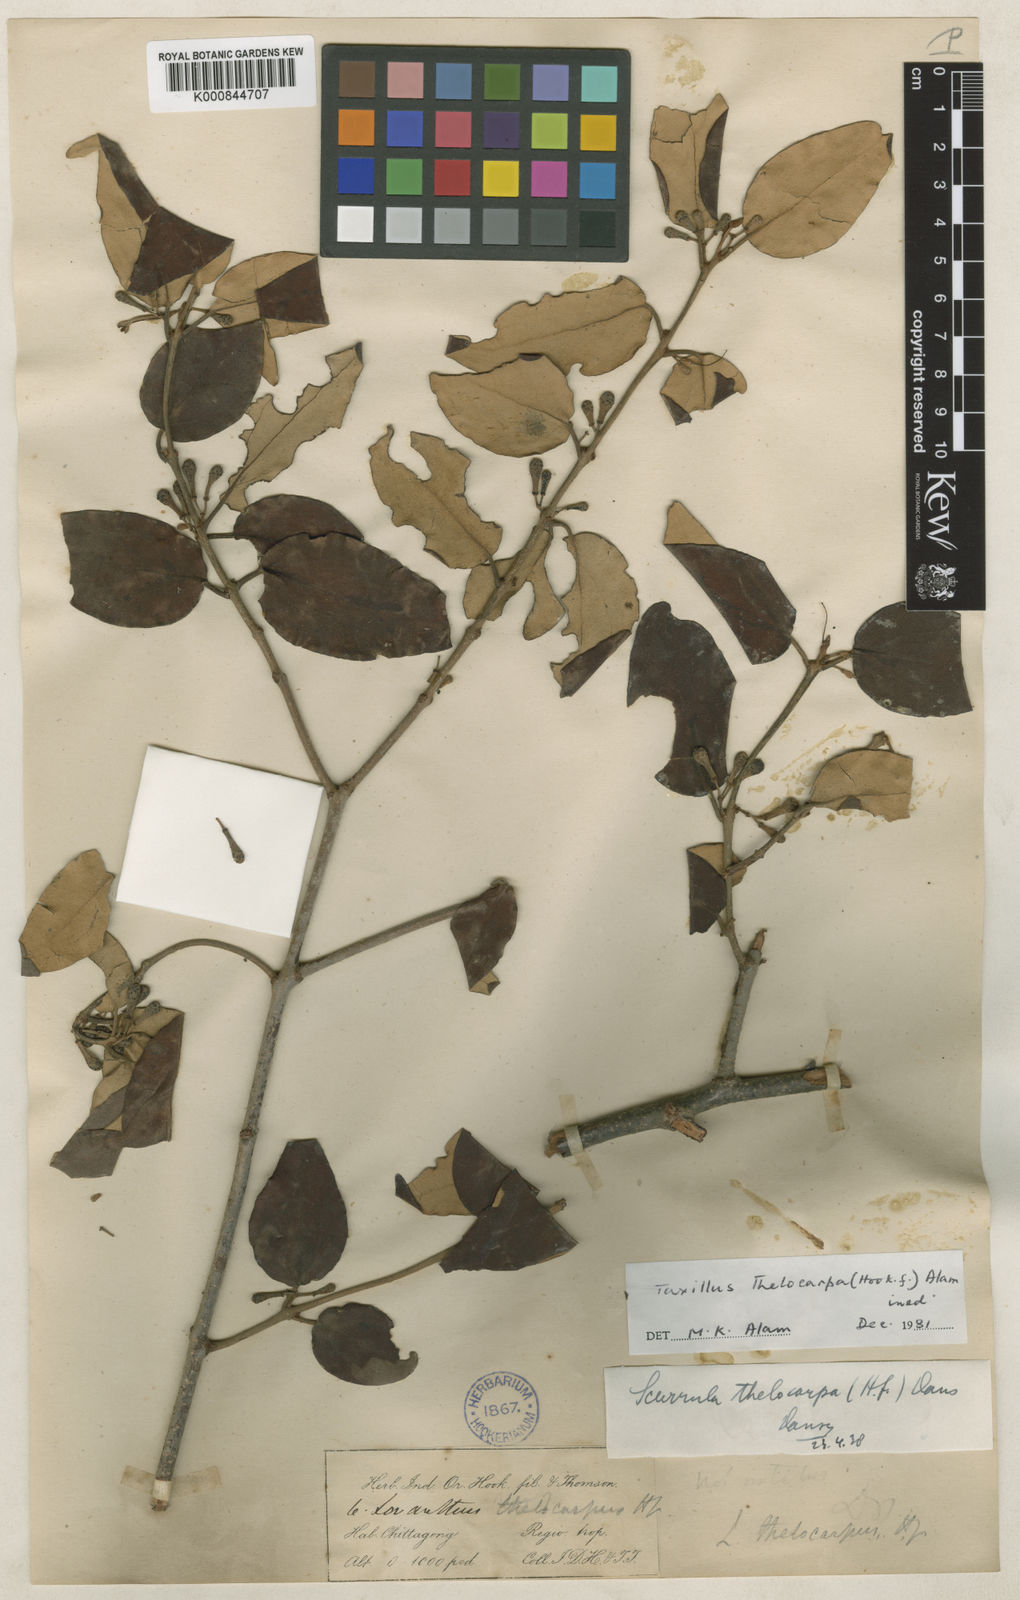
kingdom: Plantae
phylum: Tracheophyta
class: Magnoliopsida
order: Santalales
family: Loranthaceae
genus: Taxillus
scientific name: Taxillus thelocarpa
